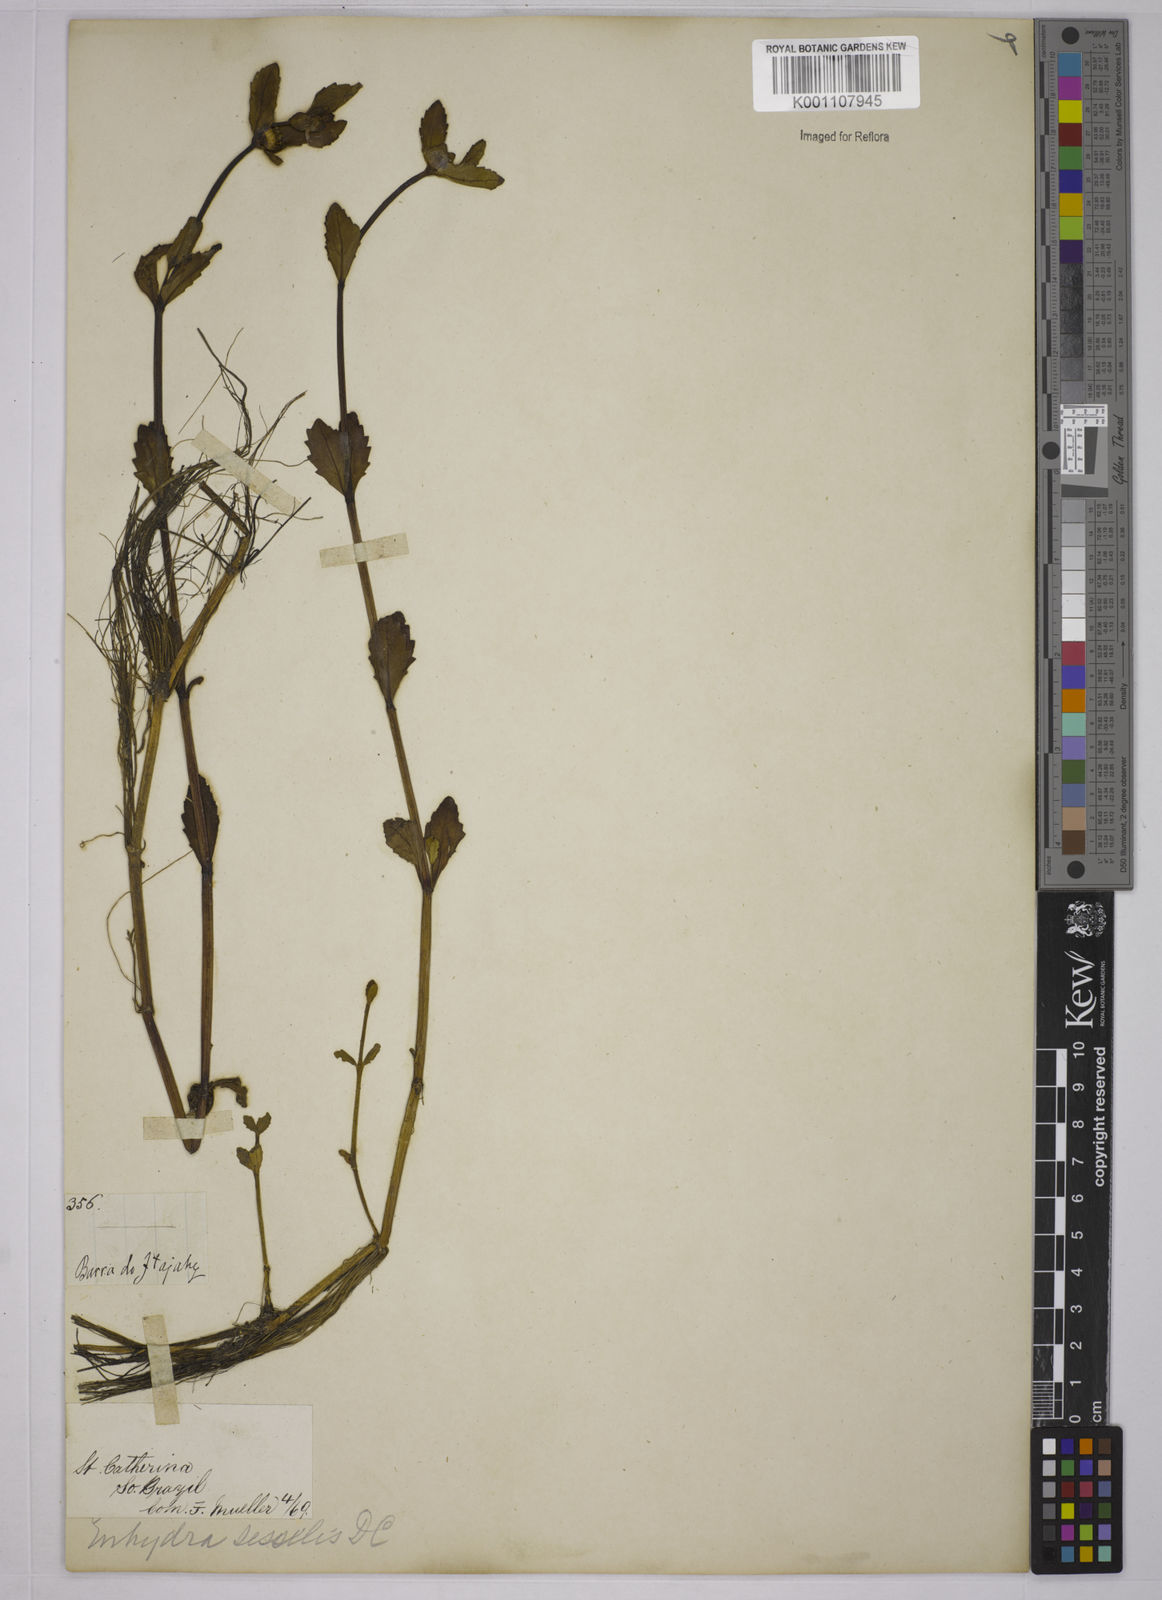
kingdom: Plantae
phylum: Tracheophyta
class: Magnoliopsida
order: Asterales
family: Asteraceae
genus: Enydra
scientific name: Enydra sessilis
